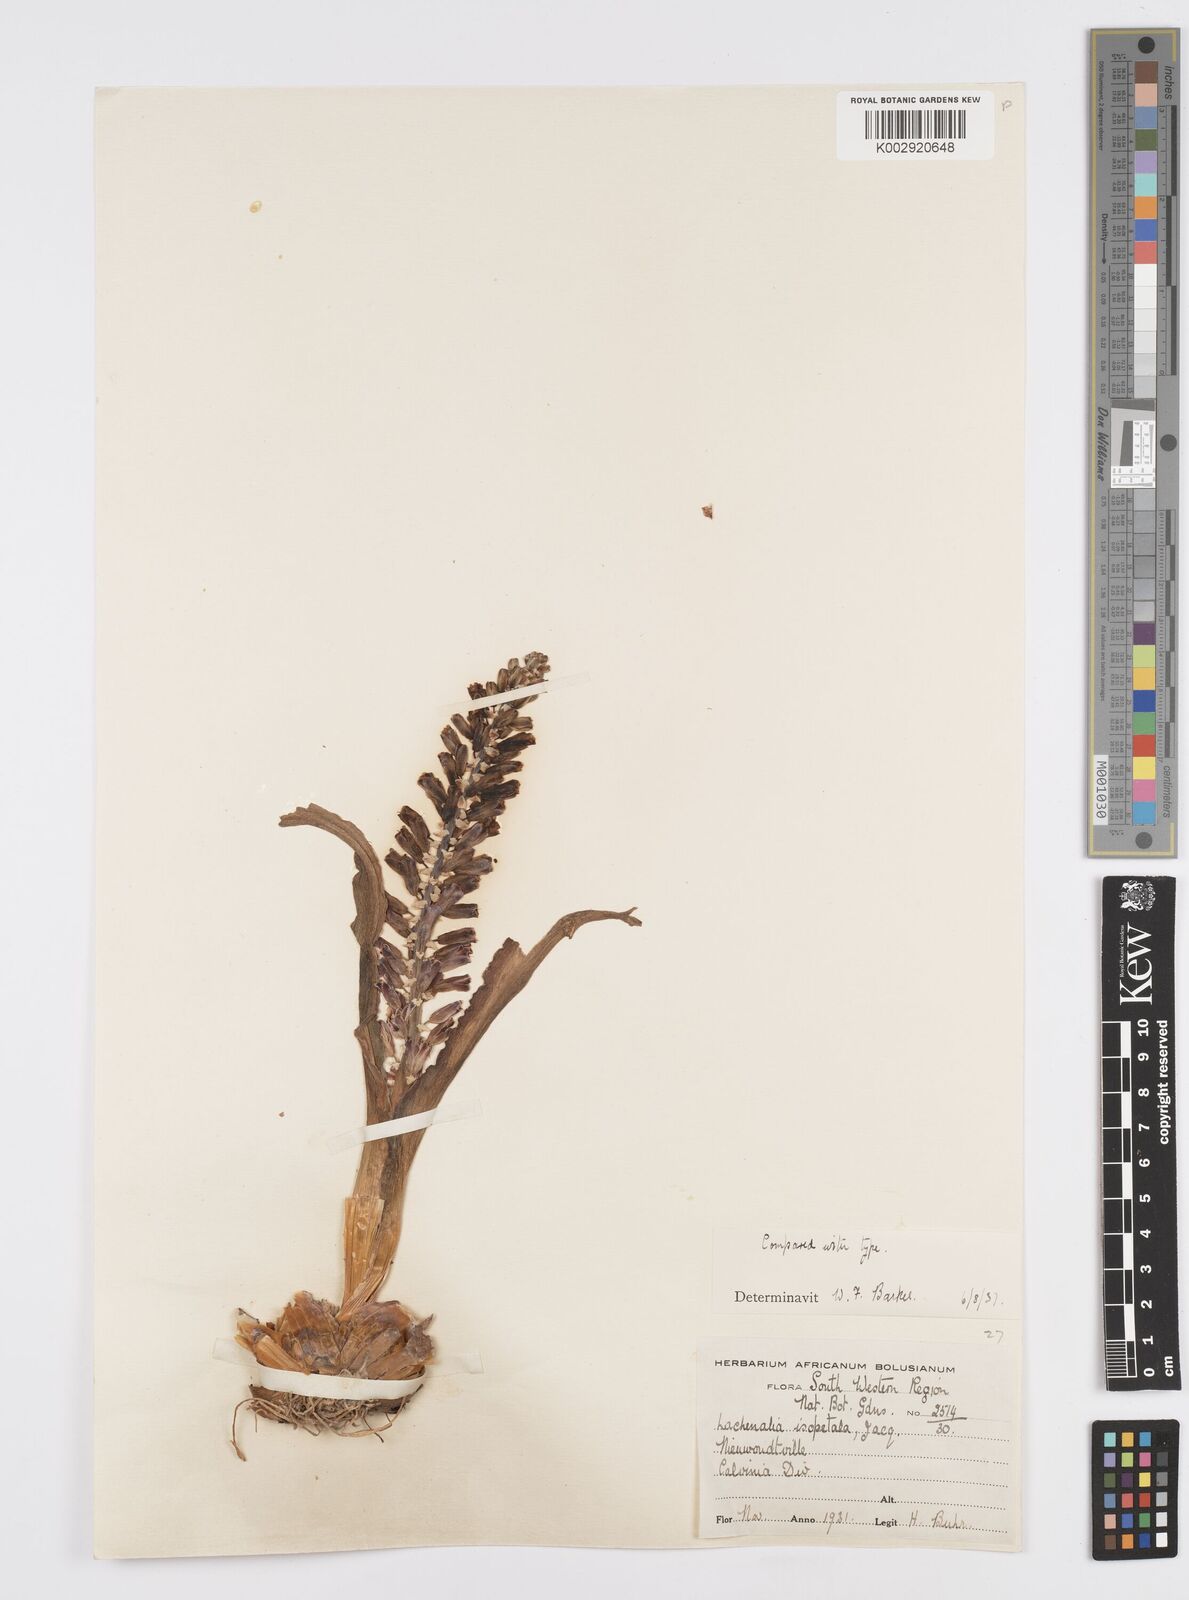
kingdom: Plantae
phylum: Tracheophyta
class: Liliopsida
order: Asparagales
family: Asparagaceae
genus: Lachenalia
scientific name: Lachenalia isopetala
